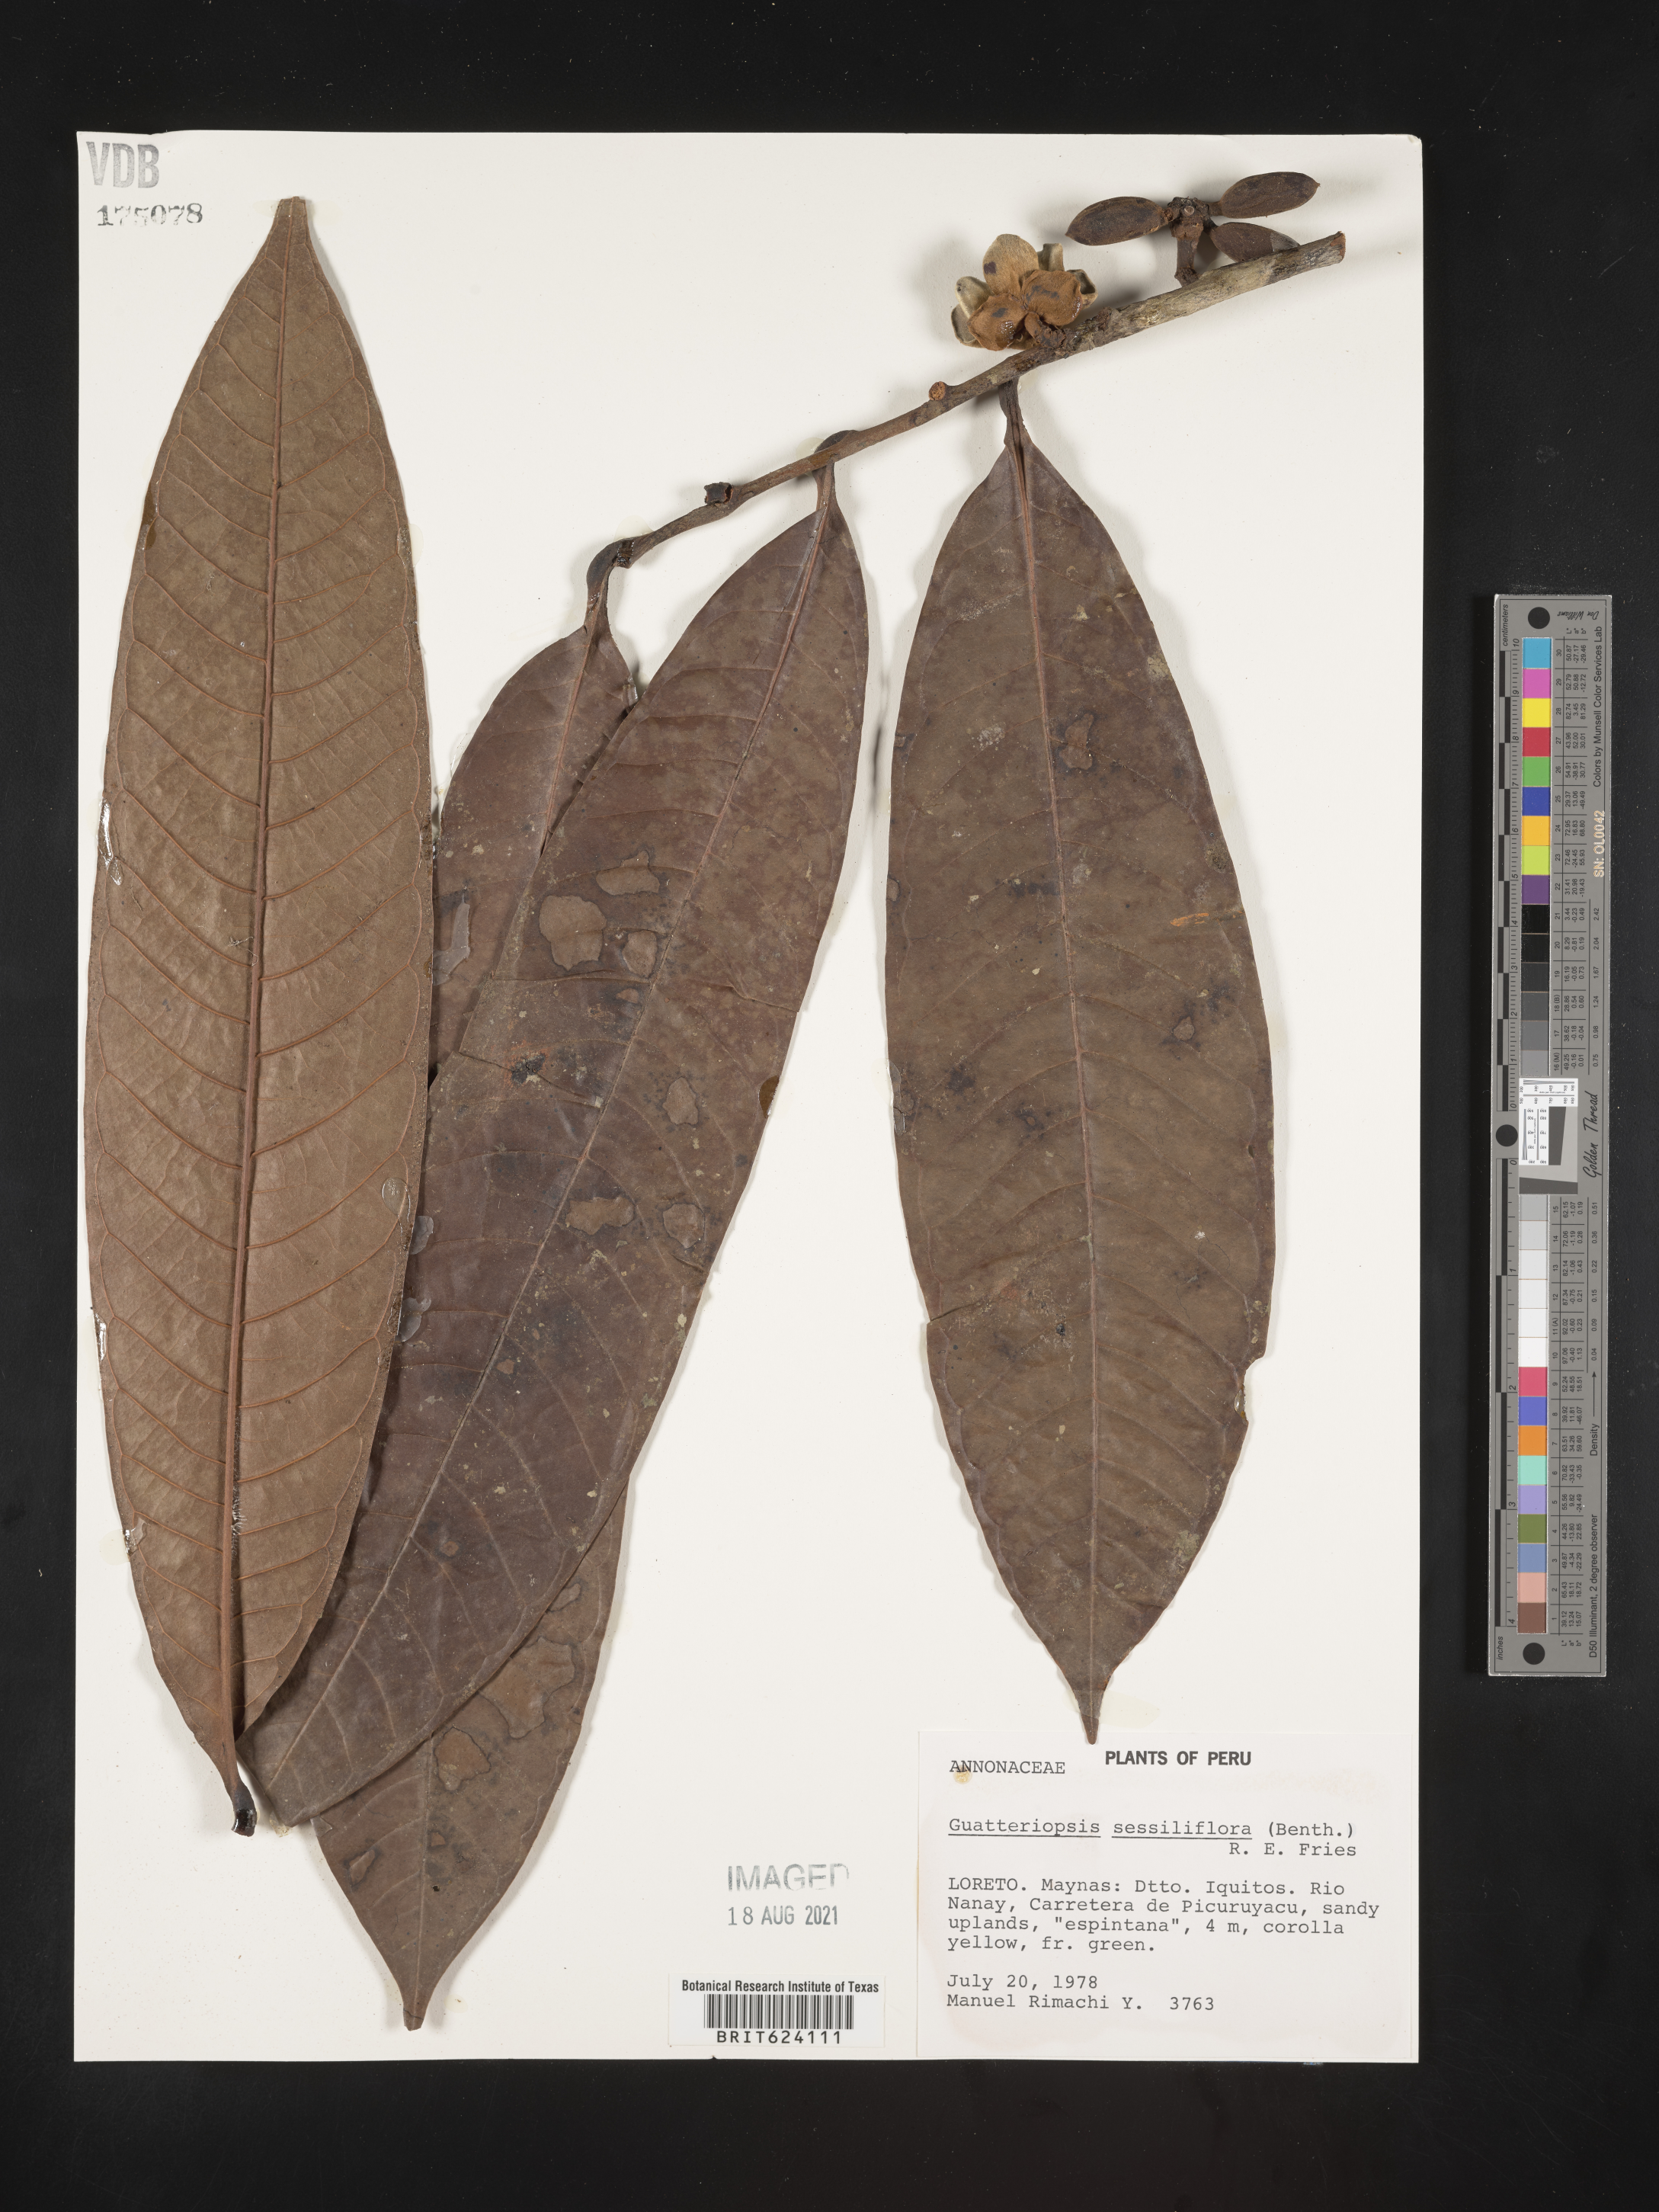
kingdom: Plantae
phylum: Tracheophyta
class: Magnoliopsida
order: Magnoliales
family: Annonaceae
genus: Guatteria
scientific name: Guatteria blepharophylla
